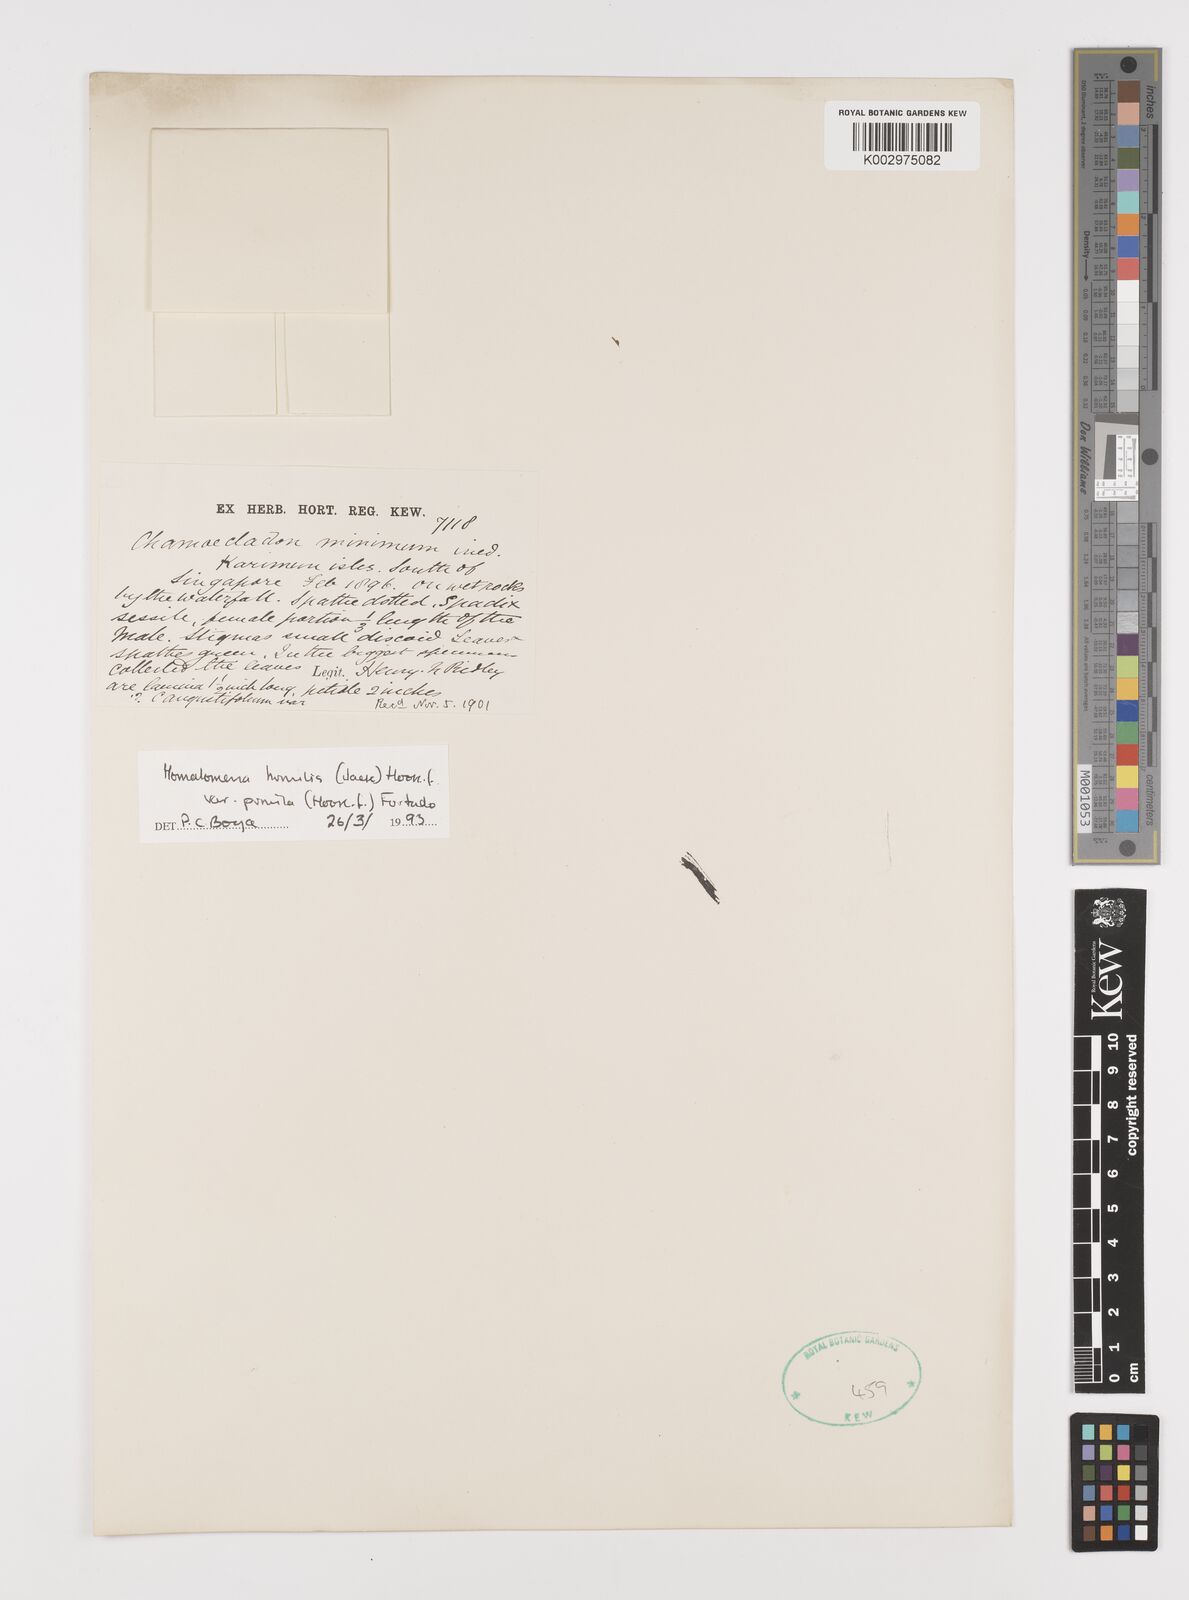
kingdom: Plantae
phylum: Tracheophyta
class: Liliopsida
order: Alismatales
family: Araceae
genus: Homalomena
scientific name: Homalomena humilis
